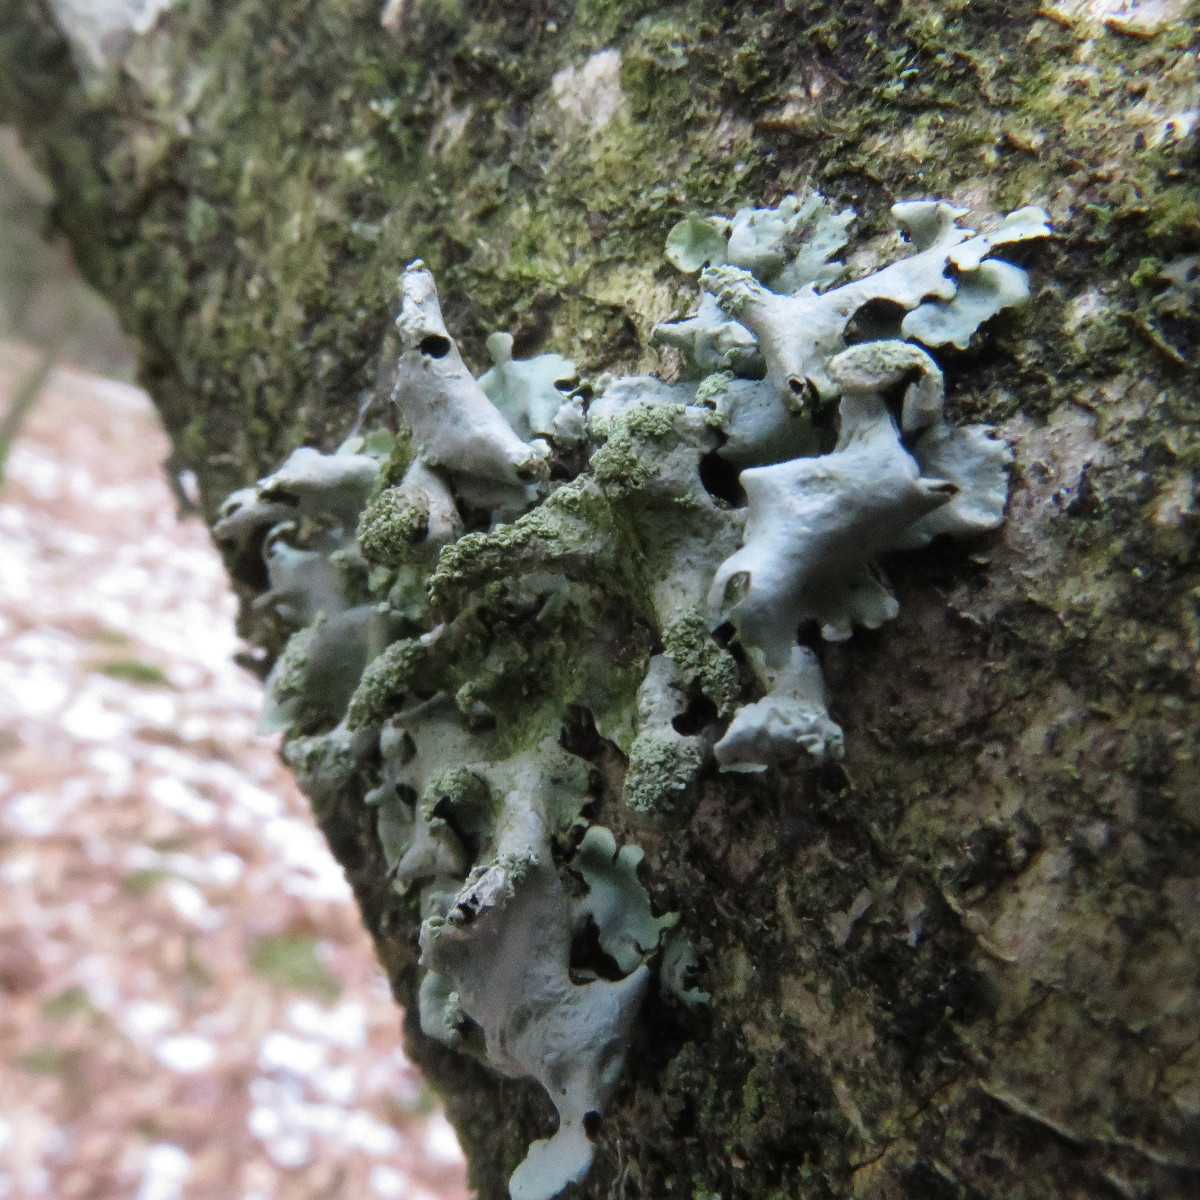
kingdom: Fungi
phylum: Ascomycota
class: Lecanoromycetes
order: Lecanorales
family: Parmeliaceae
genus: Hypotrachyna
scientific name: Hypotrachyna revoluta
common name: bleggrå skållav
